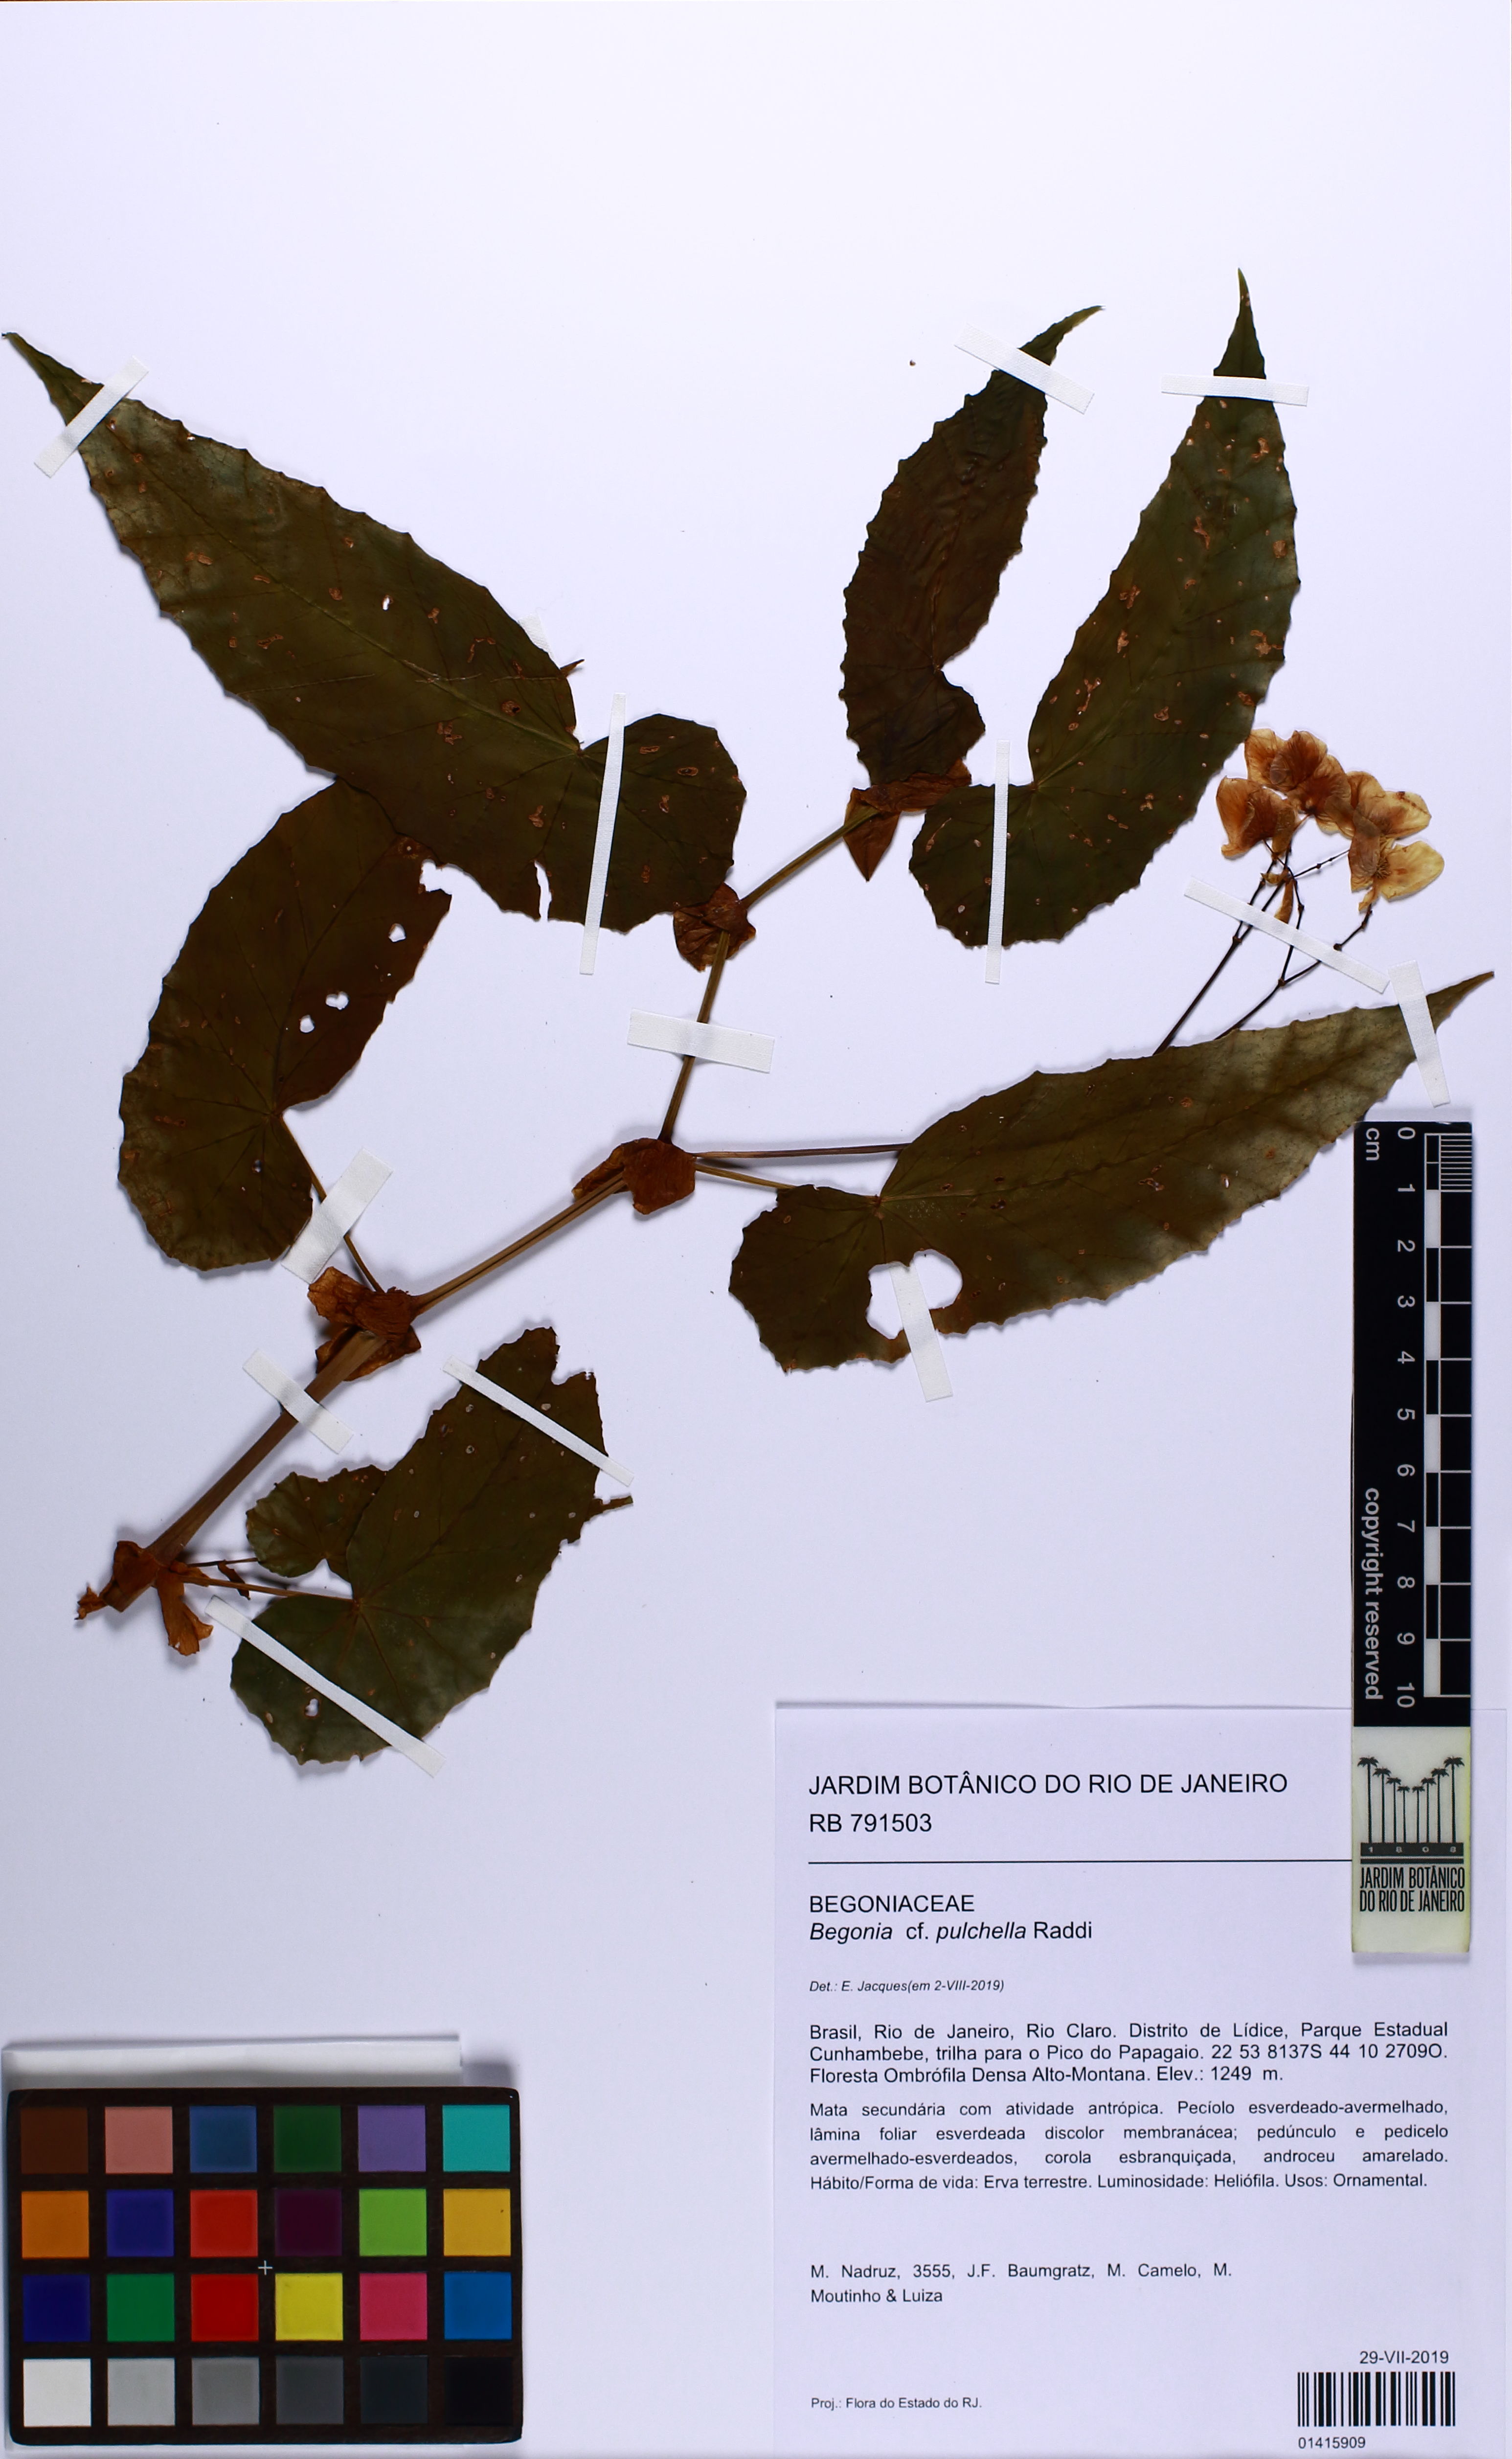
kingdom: Plantae
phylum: Tracheophyta
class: Magnoliopsida
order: Cucurbitales
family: Begoniaceae
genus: Begonia
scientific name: Begonia pulchella
